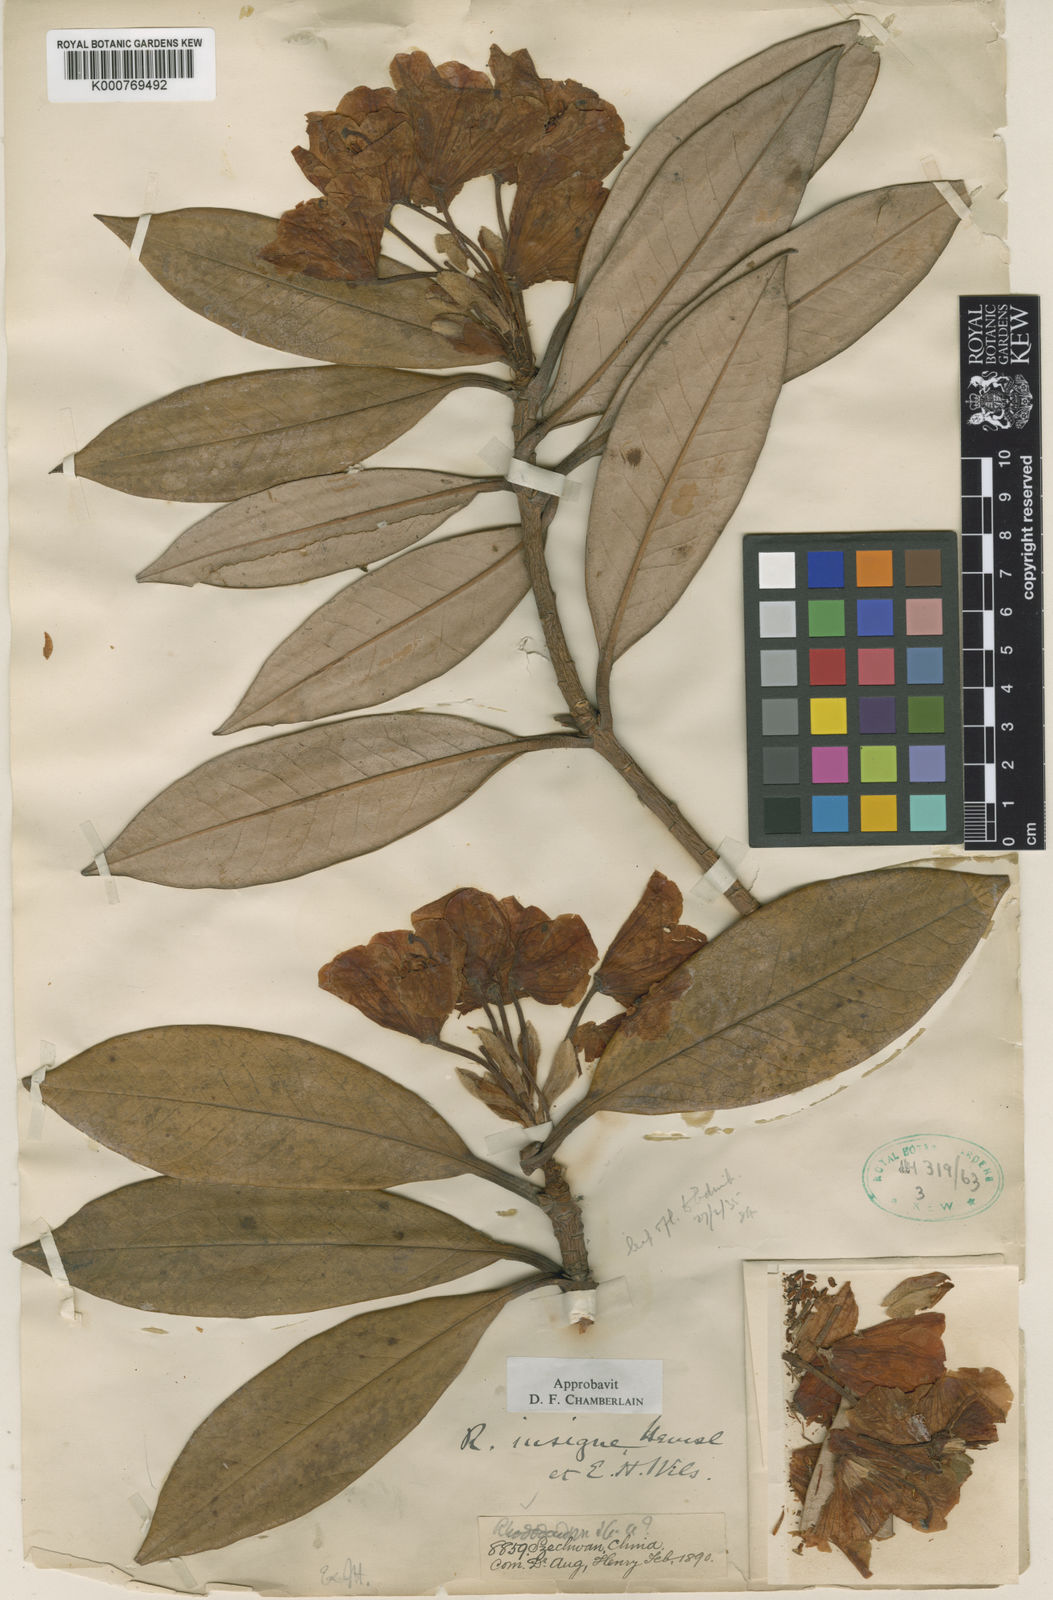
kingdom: Plantae
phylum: Tracheophyta
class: Magnoliopsida
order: Ericales
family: Ericaceae
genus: Rhododendron
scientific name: Rhododendron insigne
